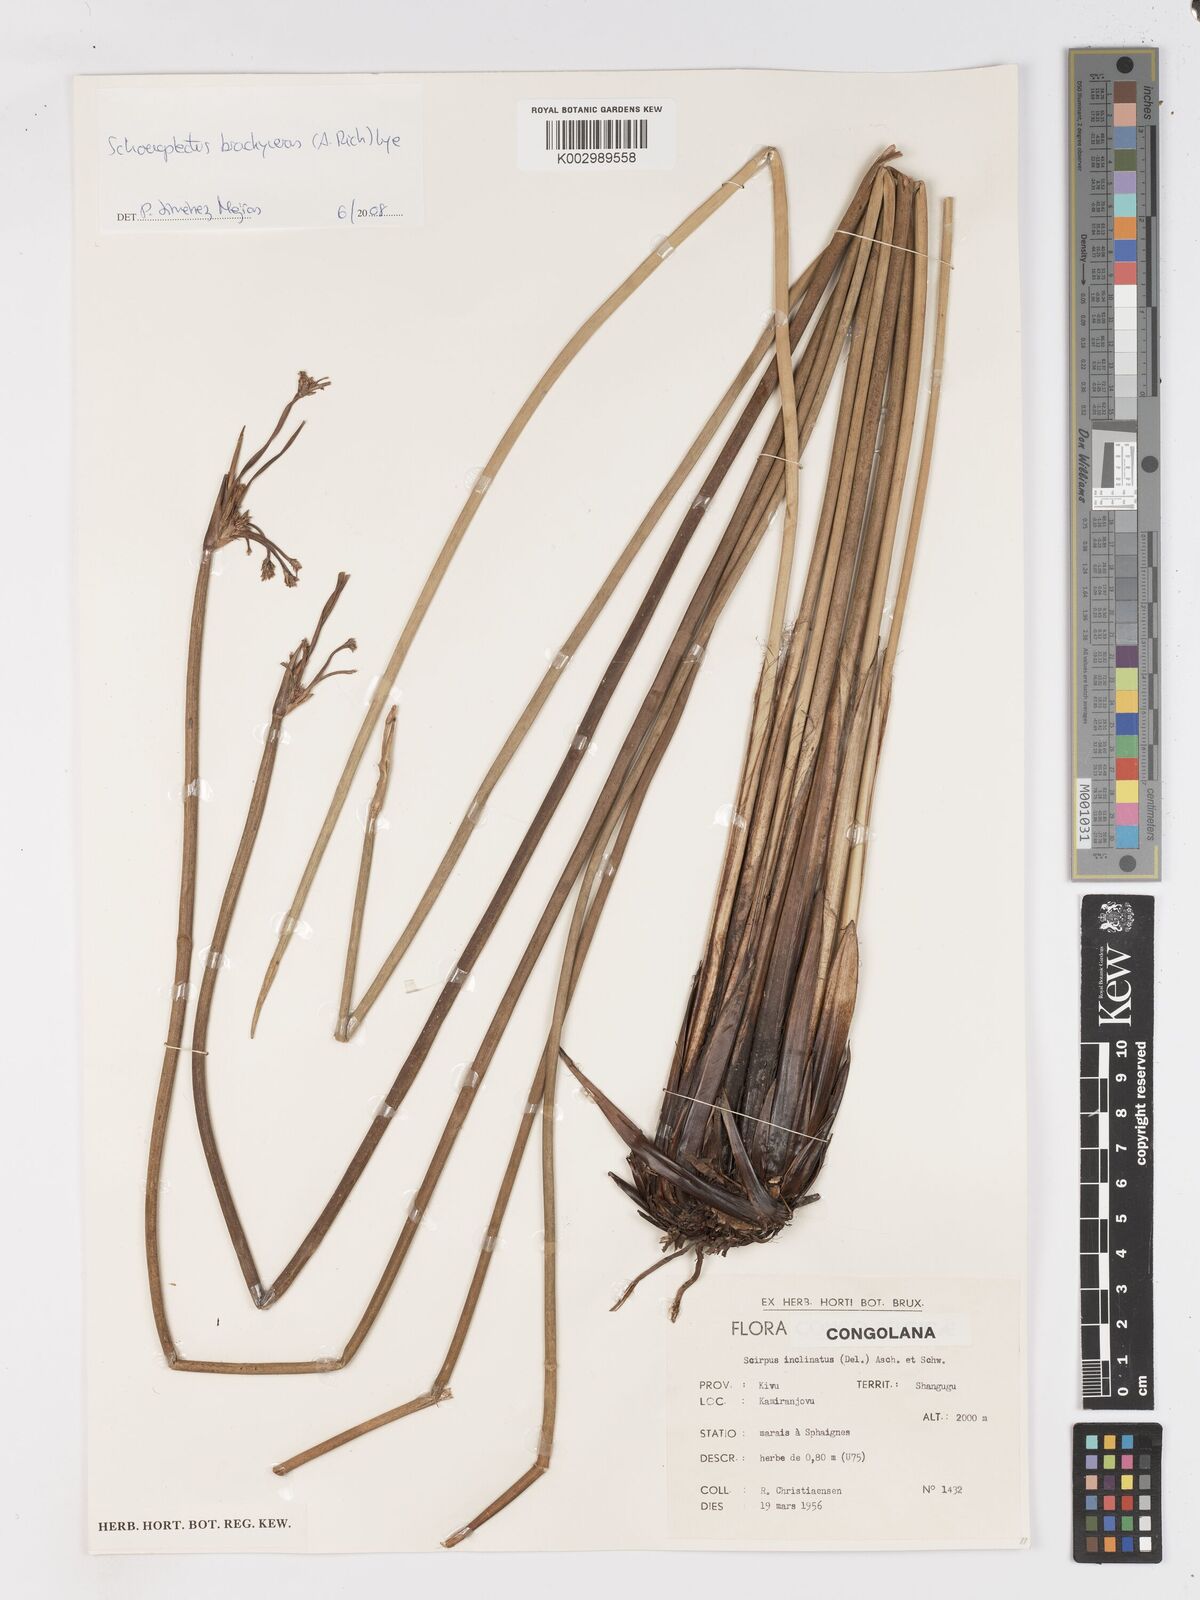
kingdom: Plantae
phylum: Tracheophyta
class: Liliopsida
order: Poales
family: Cyperaceae
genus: Schoenoplectiella
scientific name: Schoenoplectiella corymbosa
